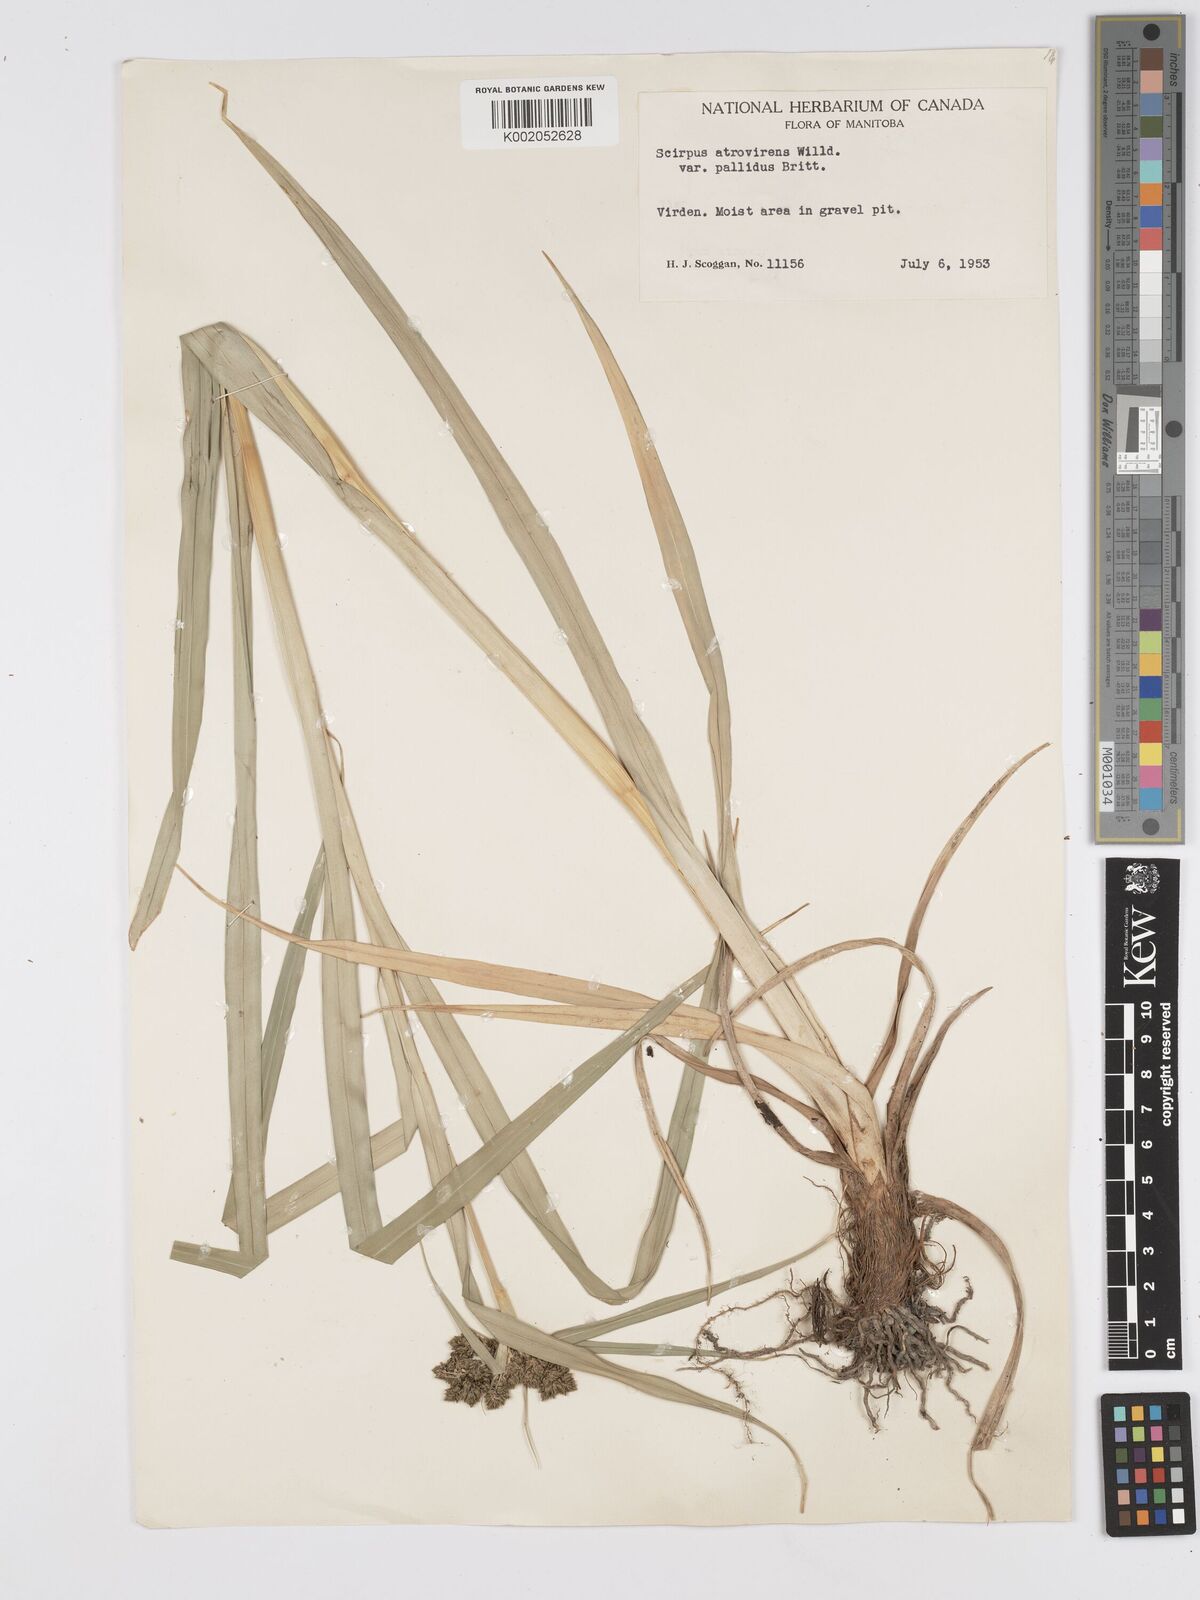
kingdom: Plantae
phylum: Tracheophyta
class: Liliopsida
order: Poales
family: Cyperaceae
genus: Scirpus
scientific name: Scirpus atrovirens
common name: Black bulrush
